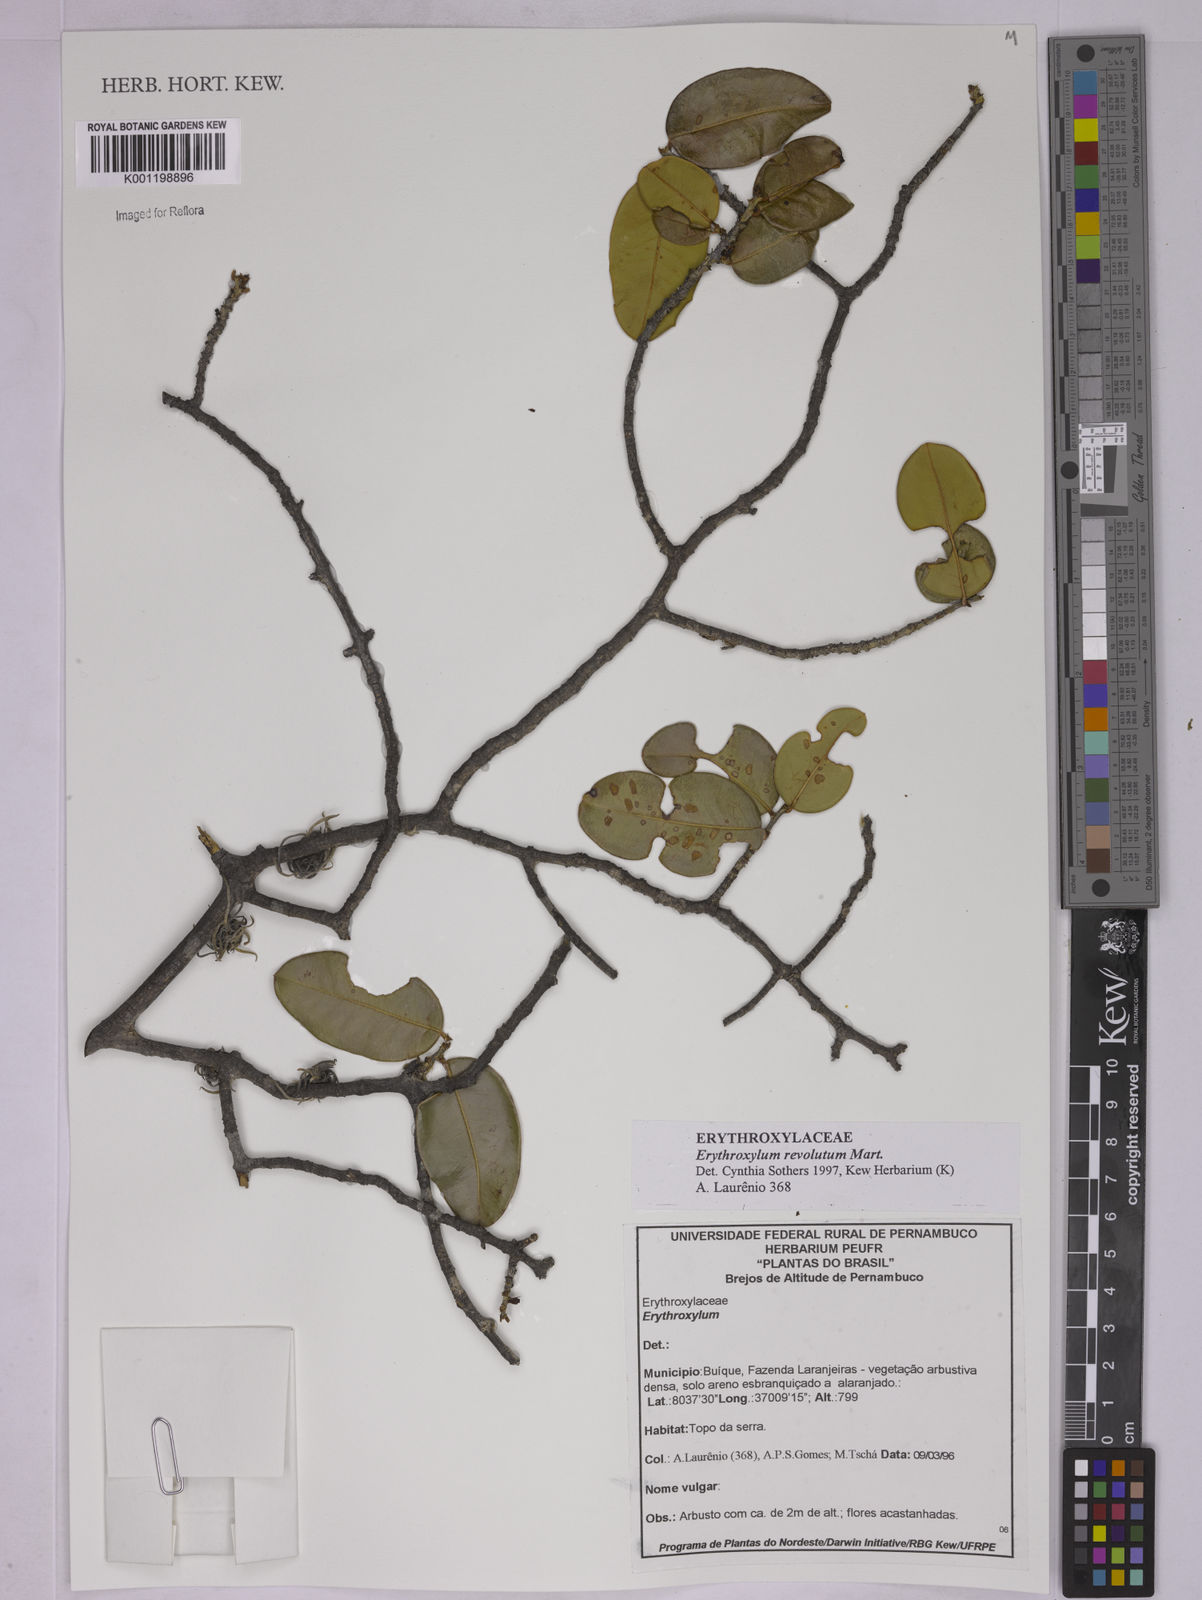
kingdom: Plantae
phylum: Tracheophyta
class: Magnoliopsida
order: Malpighiales
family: Erythroxylaceae
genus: Erythroxylum
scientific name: Erythroxylum revolutum
